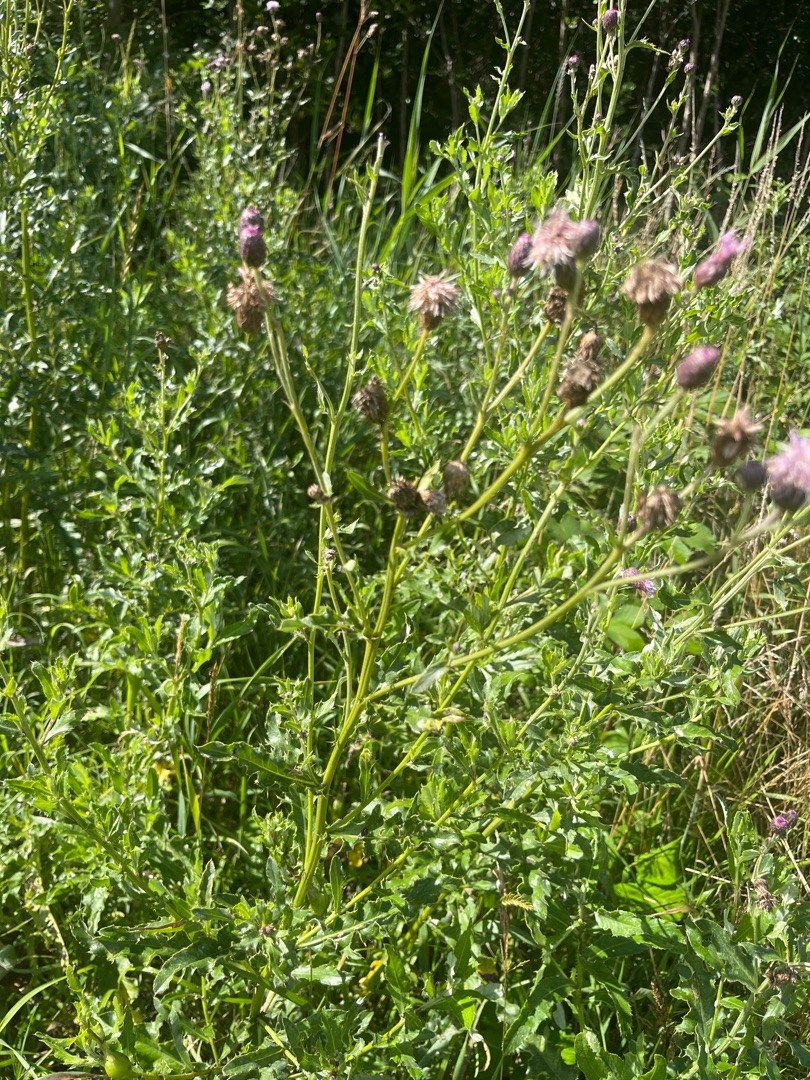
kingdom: Plantae
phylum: Tracheophyta
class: Magnoliopsida
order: Asterales
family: Asteraceae
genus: Cirsium
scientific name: Cirsium arvense
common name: Ager-tidsel
